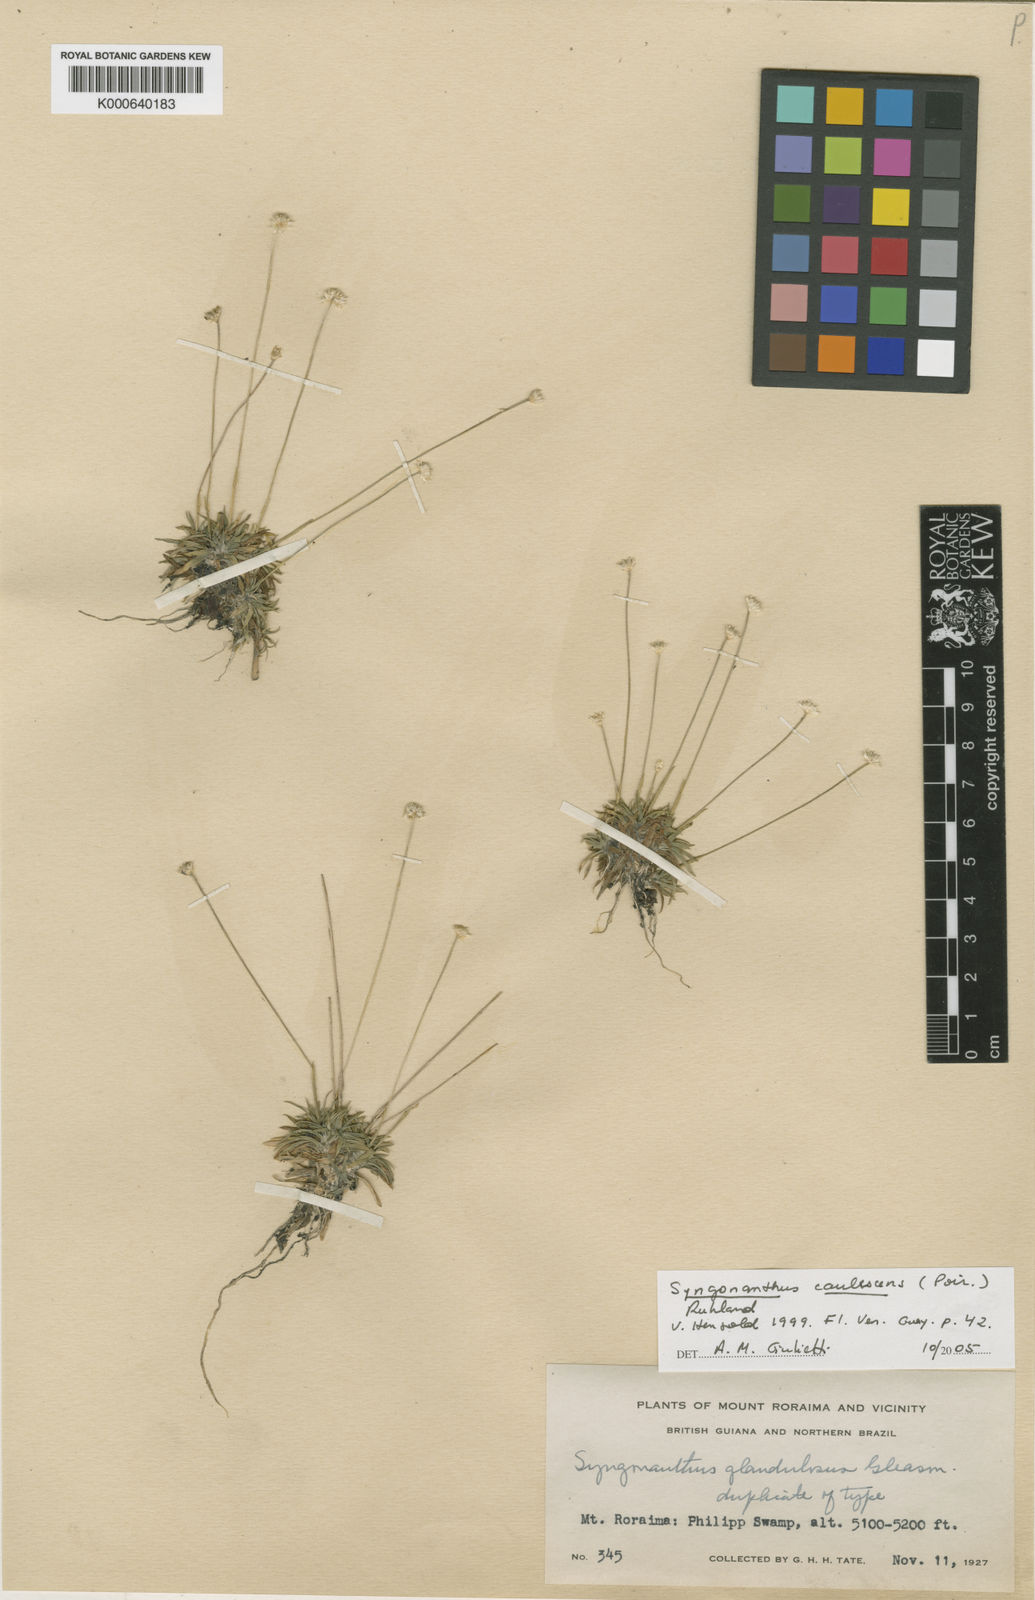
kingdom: Plantae
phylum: Tracheophyta
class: Liliopsida
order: Poales
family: Eriocaulaceae
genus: Syngonanthus
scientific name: Syngonanthus caulescens
